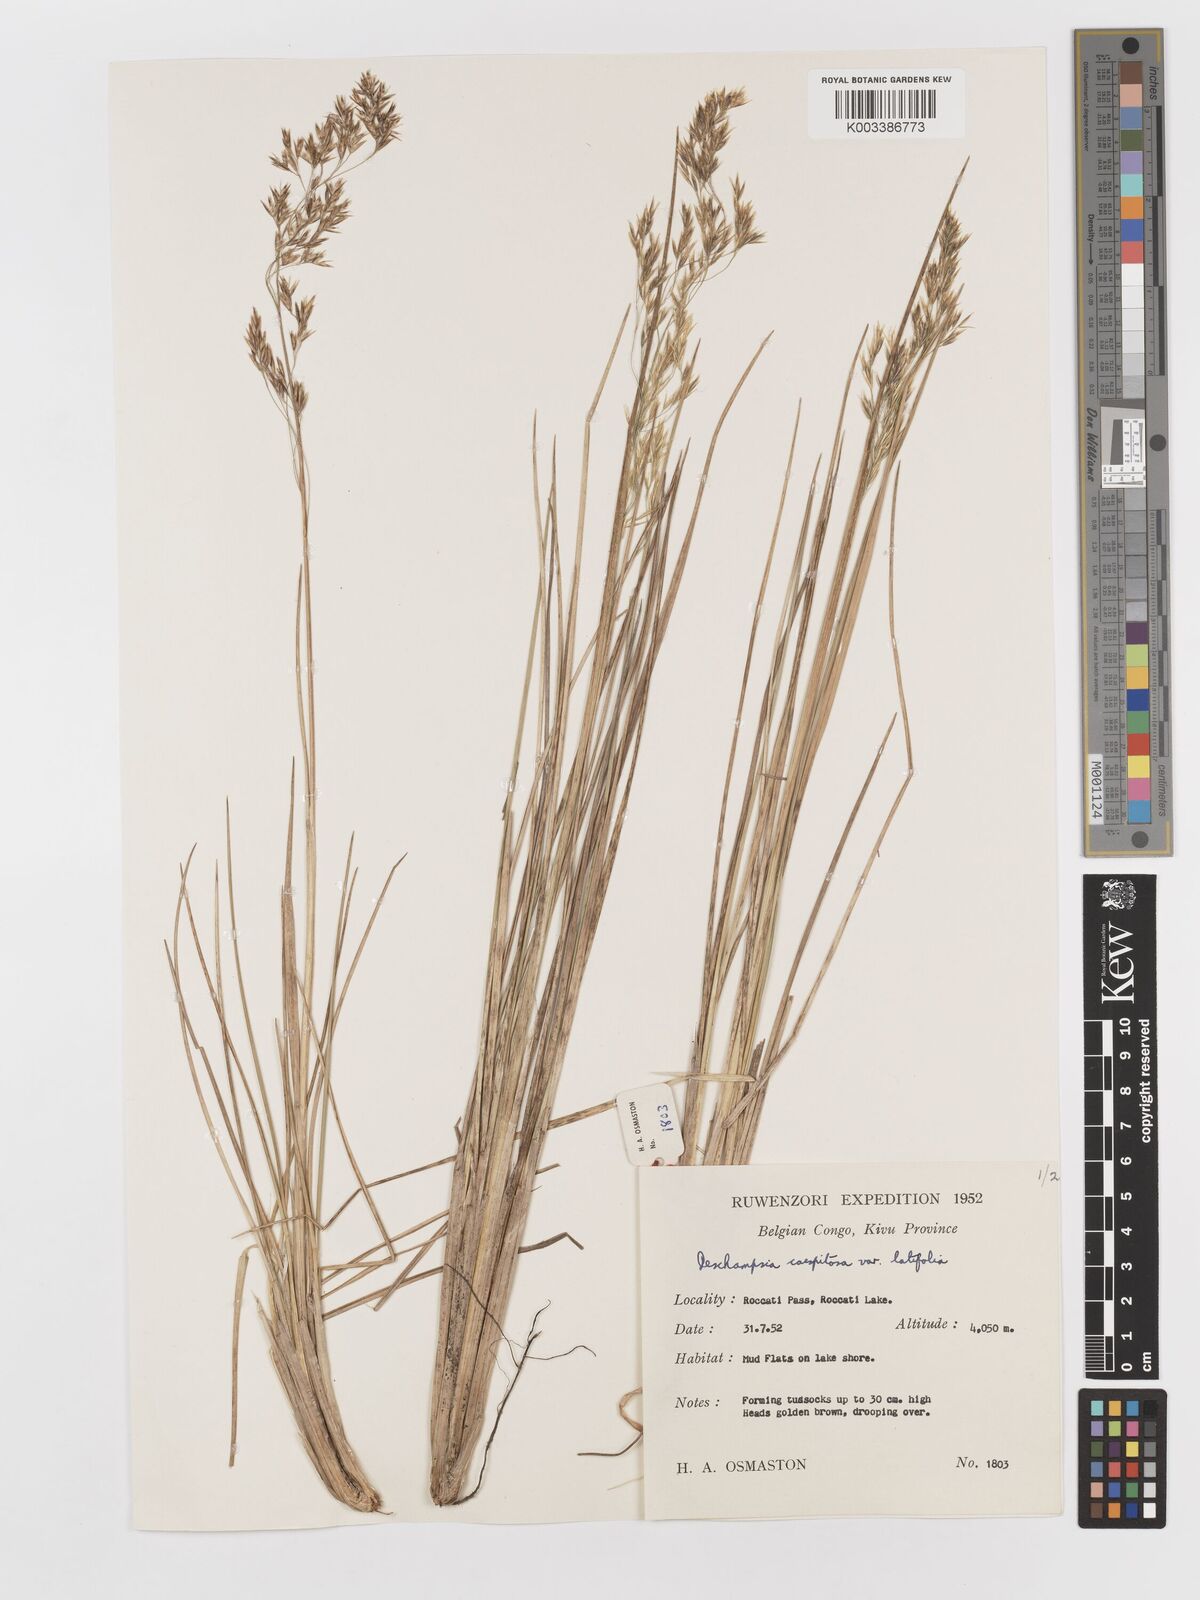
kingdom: Plantae
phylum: Tracheophyta
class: Liliopsida
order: Poales
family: Poaceae
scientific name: Poaceae
